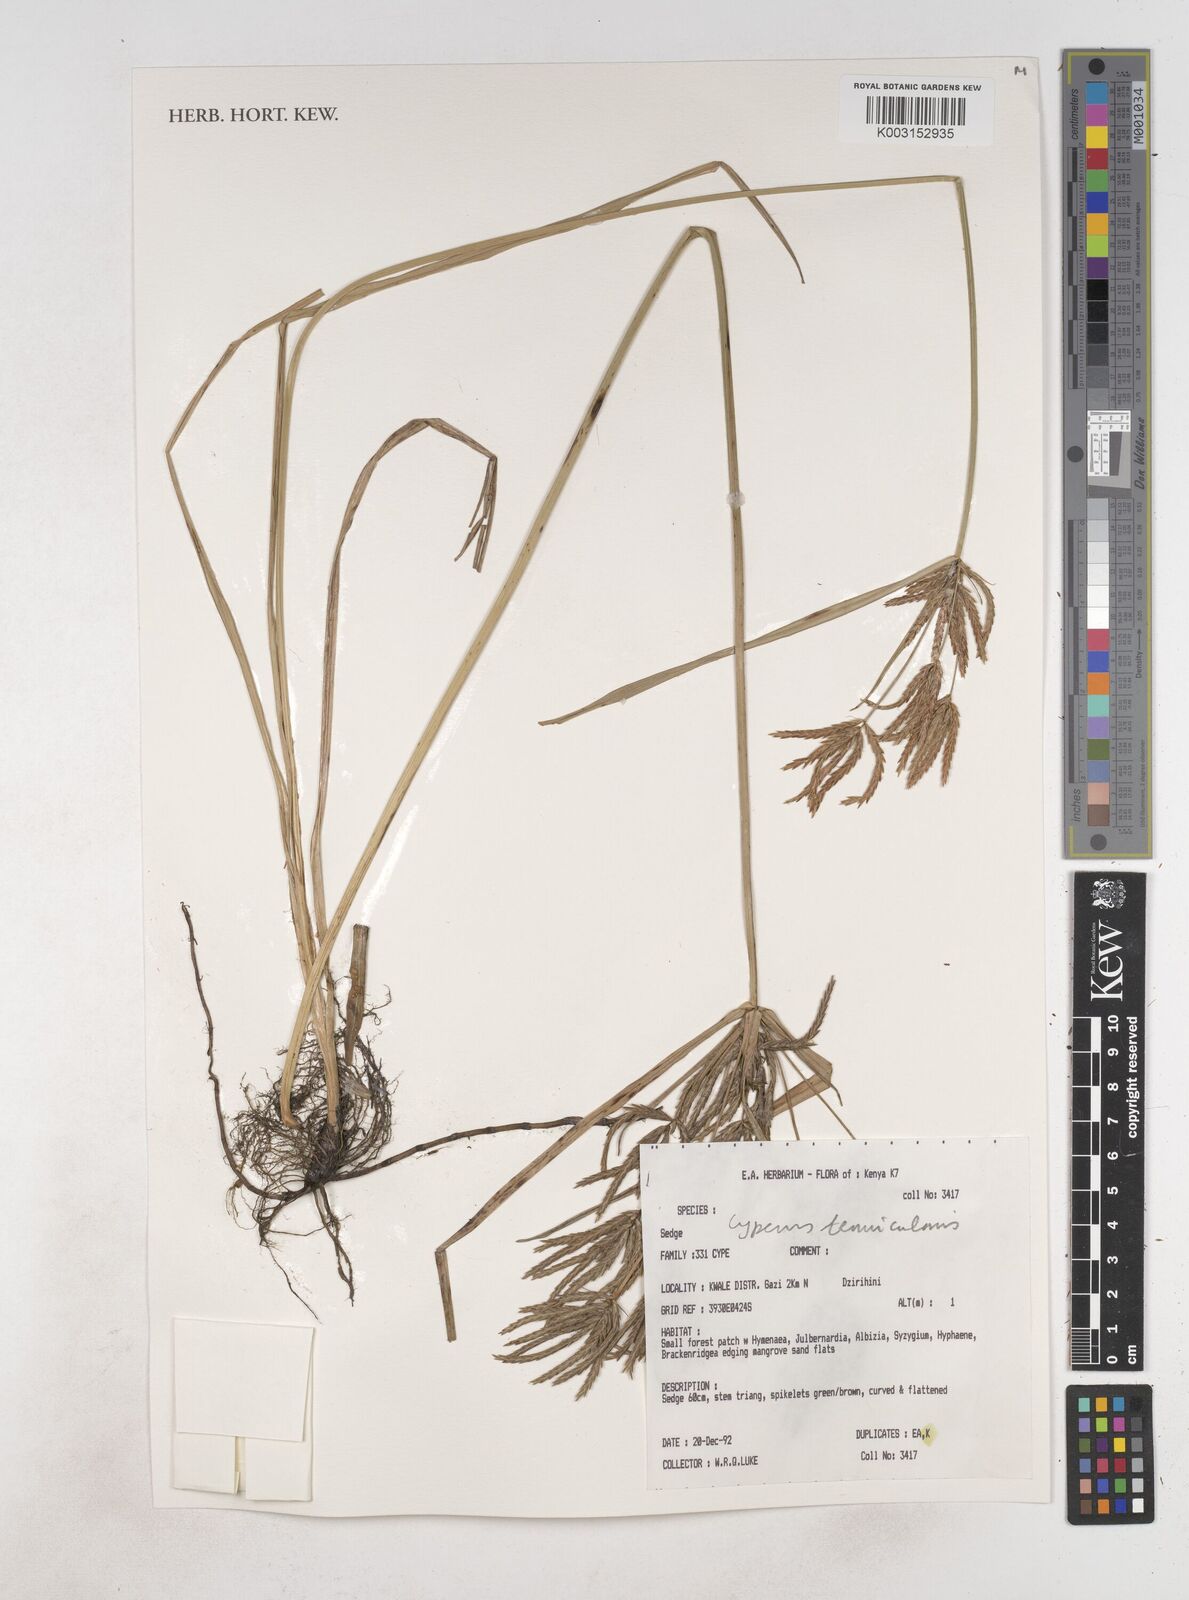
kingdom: Plantae
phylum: Tracheophyta
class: Liliopsida
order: Poales
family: Cyperaceae
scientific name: Cyperaceae
